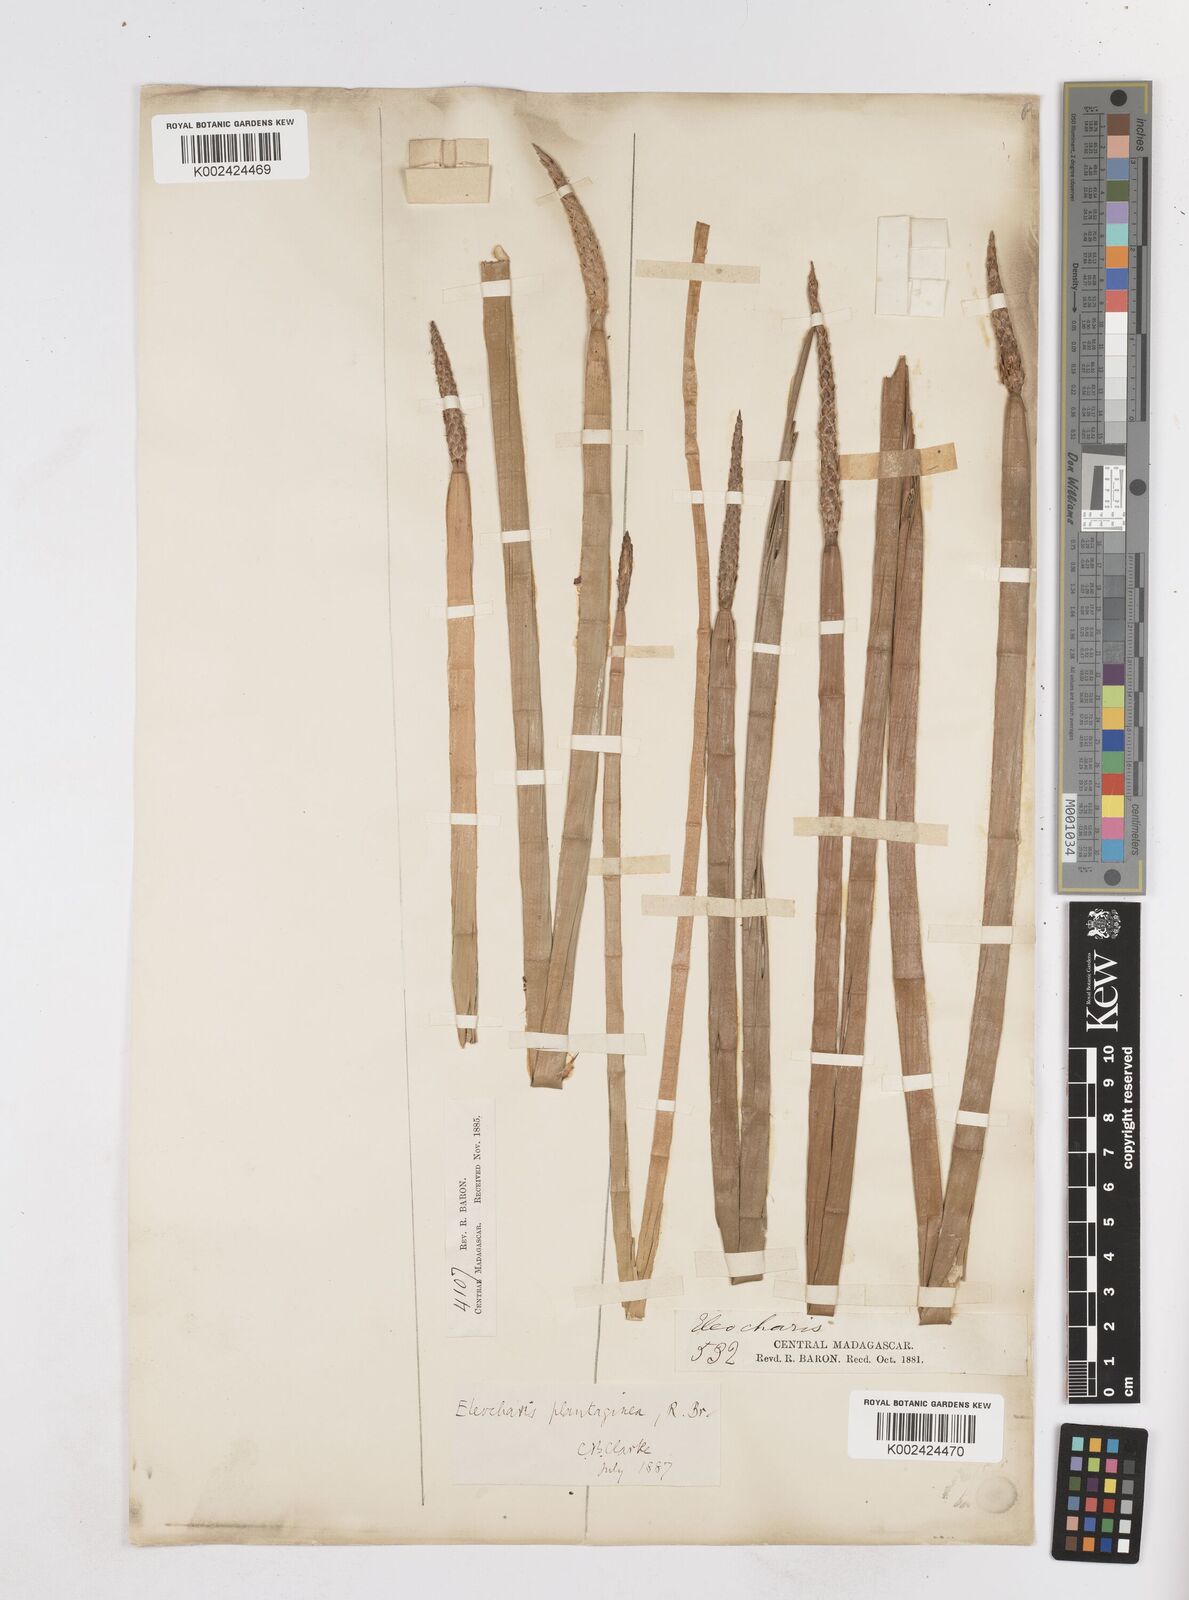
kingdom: Plantae
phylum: Tracheophyta
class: Liliopsida
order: Poales
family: Cyperaceae
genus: Eleocharis
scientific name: Eleocharis dulcis
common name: Chinese water chestnut
